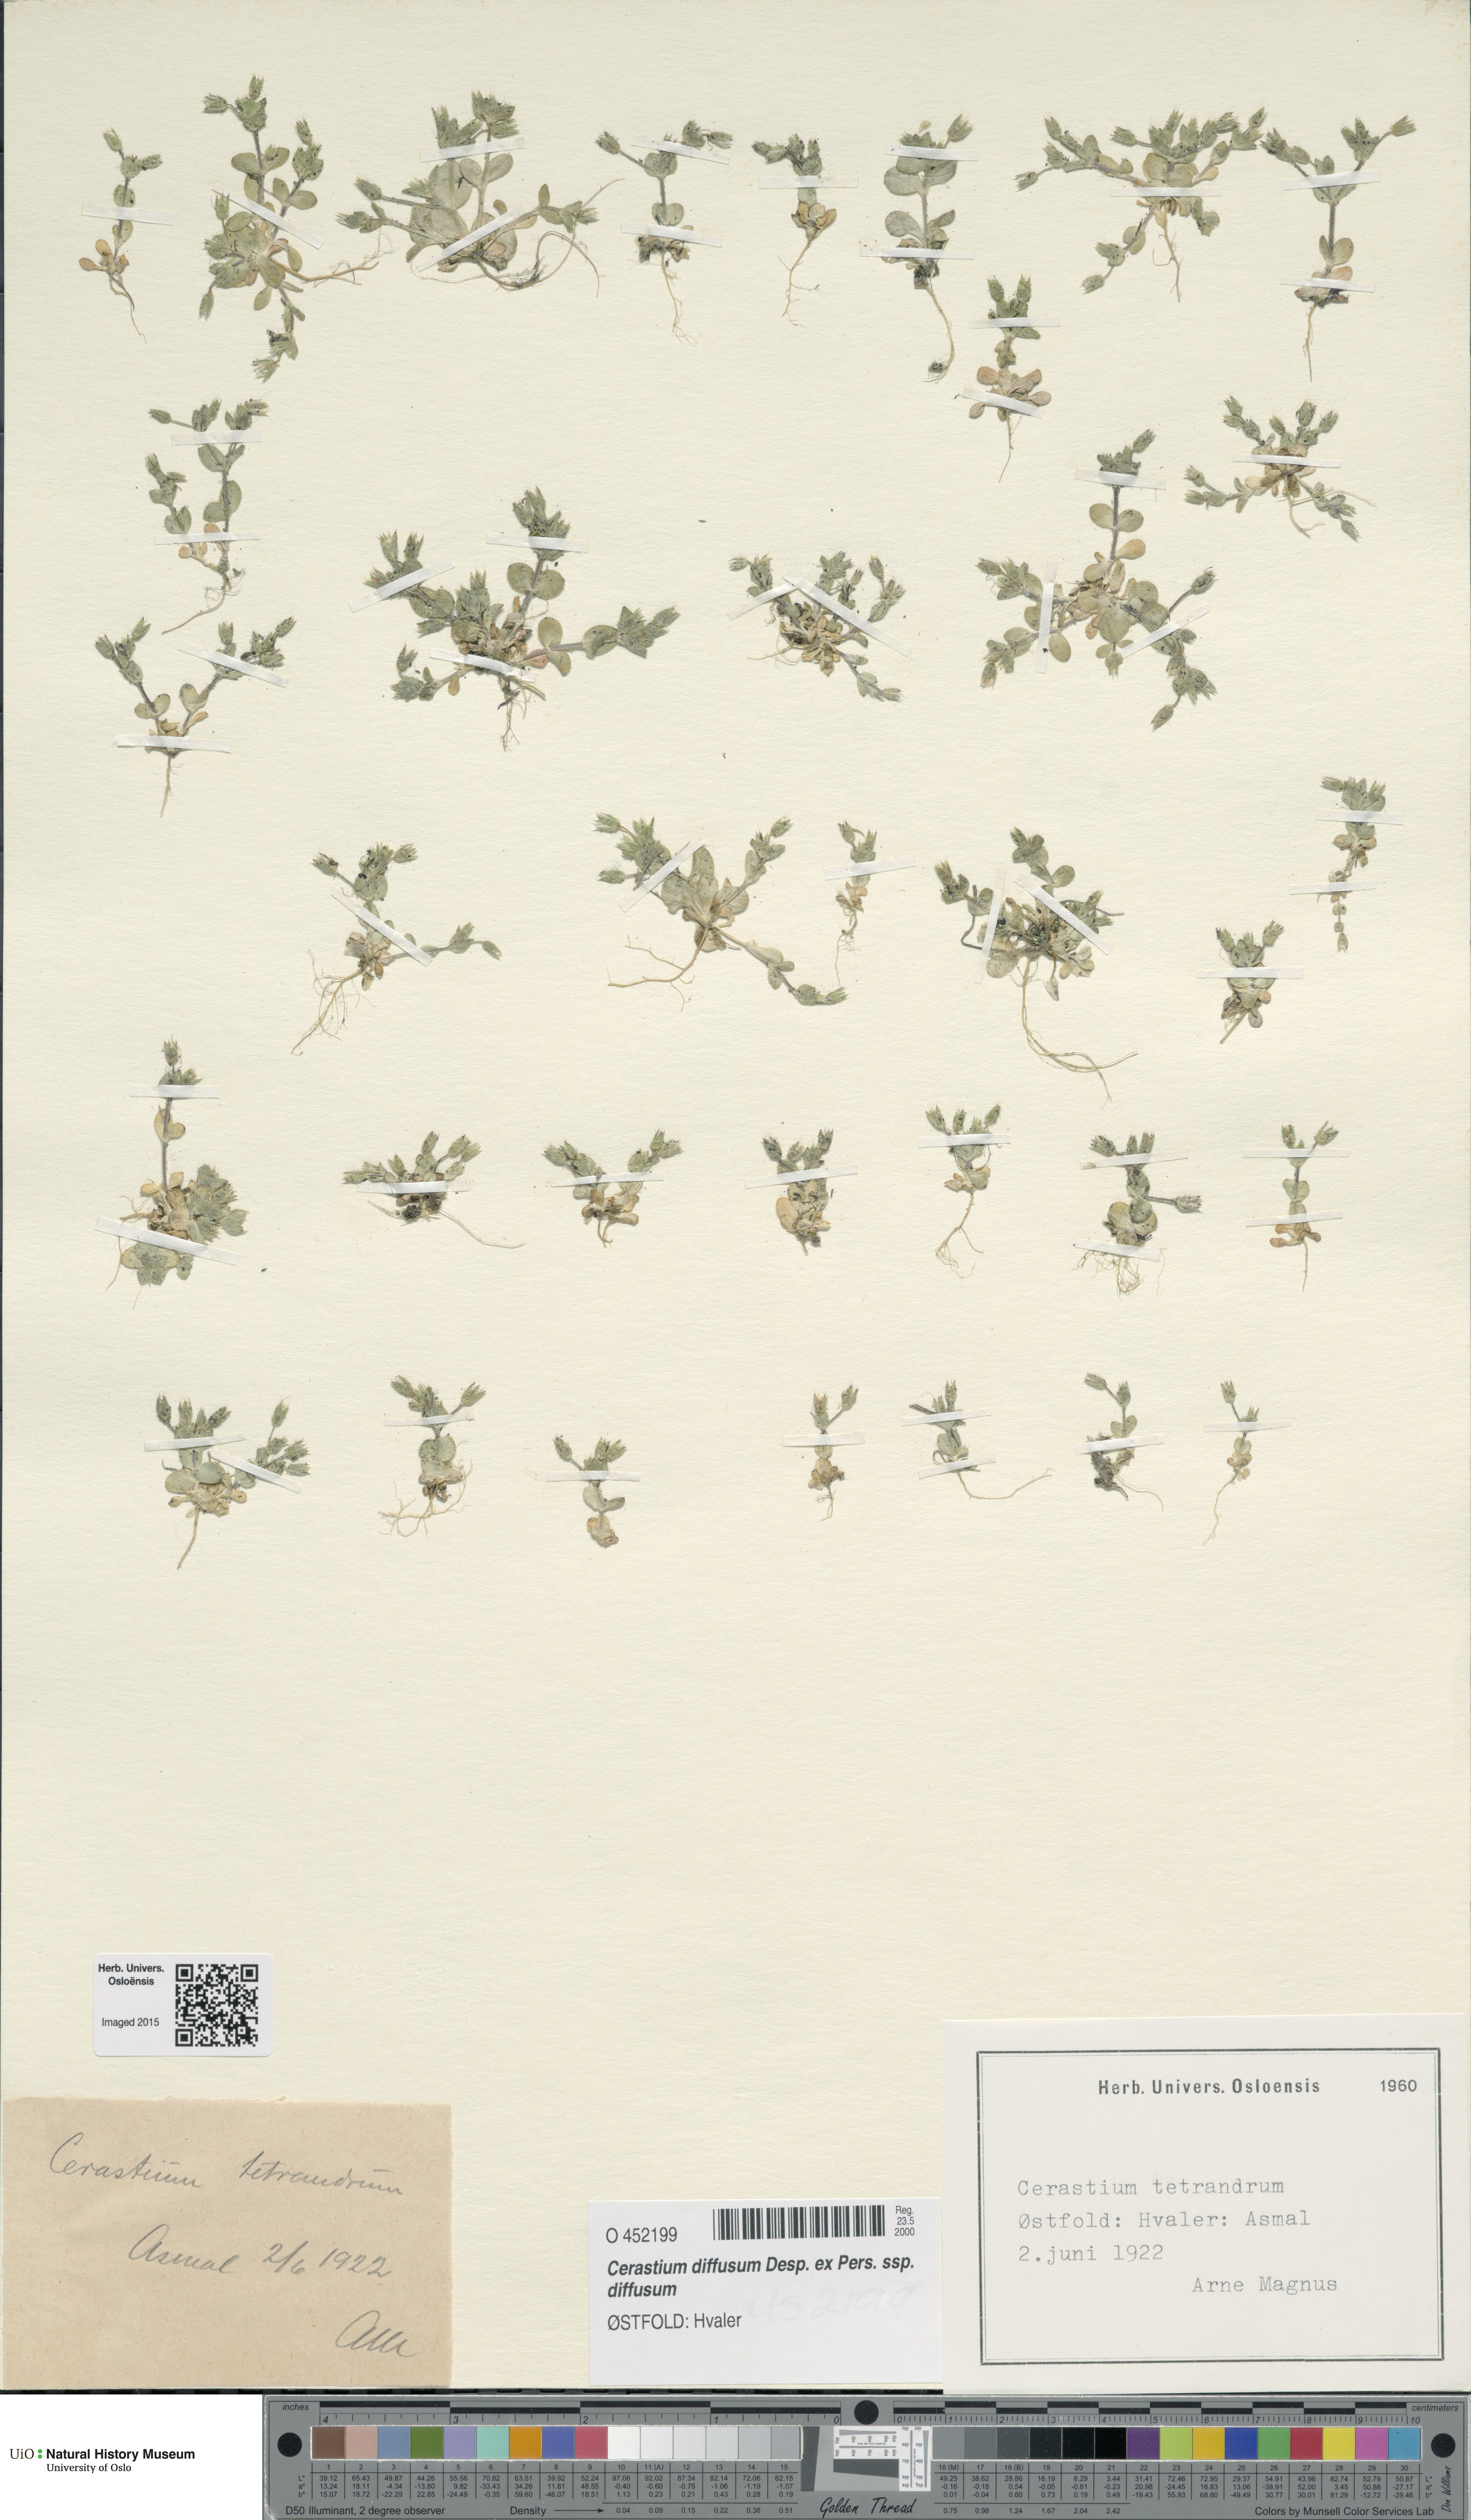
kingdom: Plantae
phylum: Tracheophyta
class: Magnoliopsida
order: Caryophyllales
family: Caryophyllaceae
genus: Cerastium
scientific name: Cerastium diffusum
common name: Fourstamen chickweed
